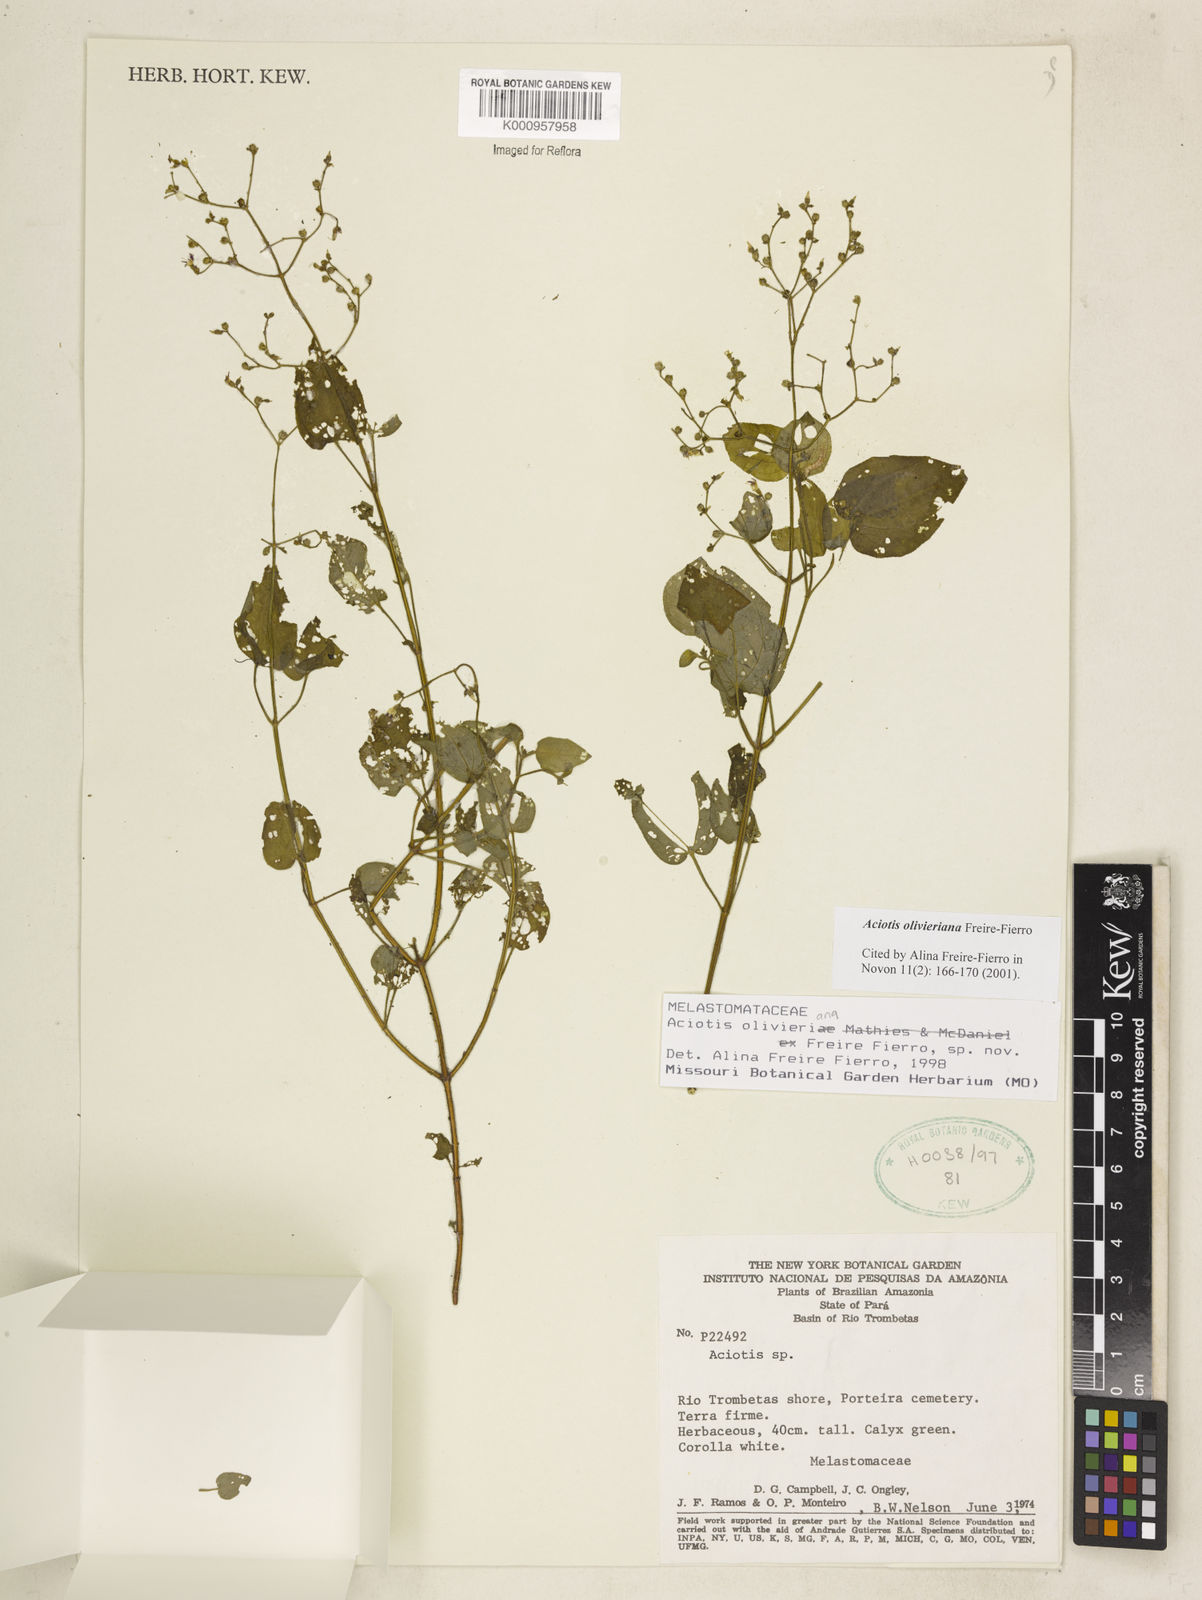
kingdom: Plantae
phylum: Tracheophyta
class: Magnoliopsida
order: Myrtales
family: Melastomataceae
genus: Aciotis
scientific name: Aciotis olivieriana
